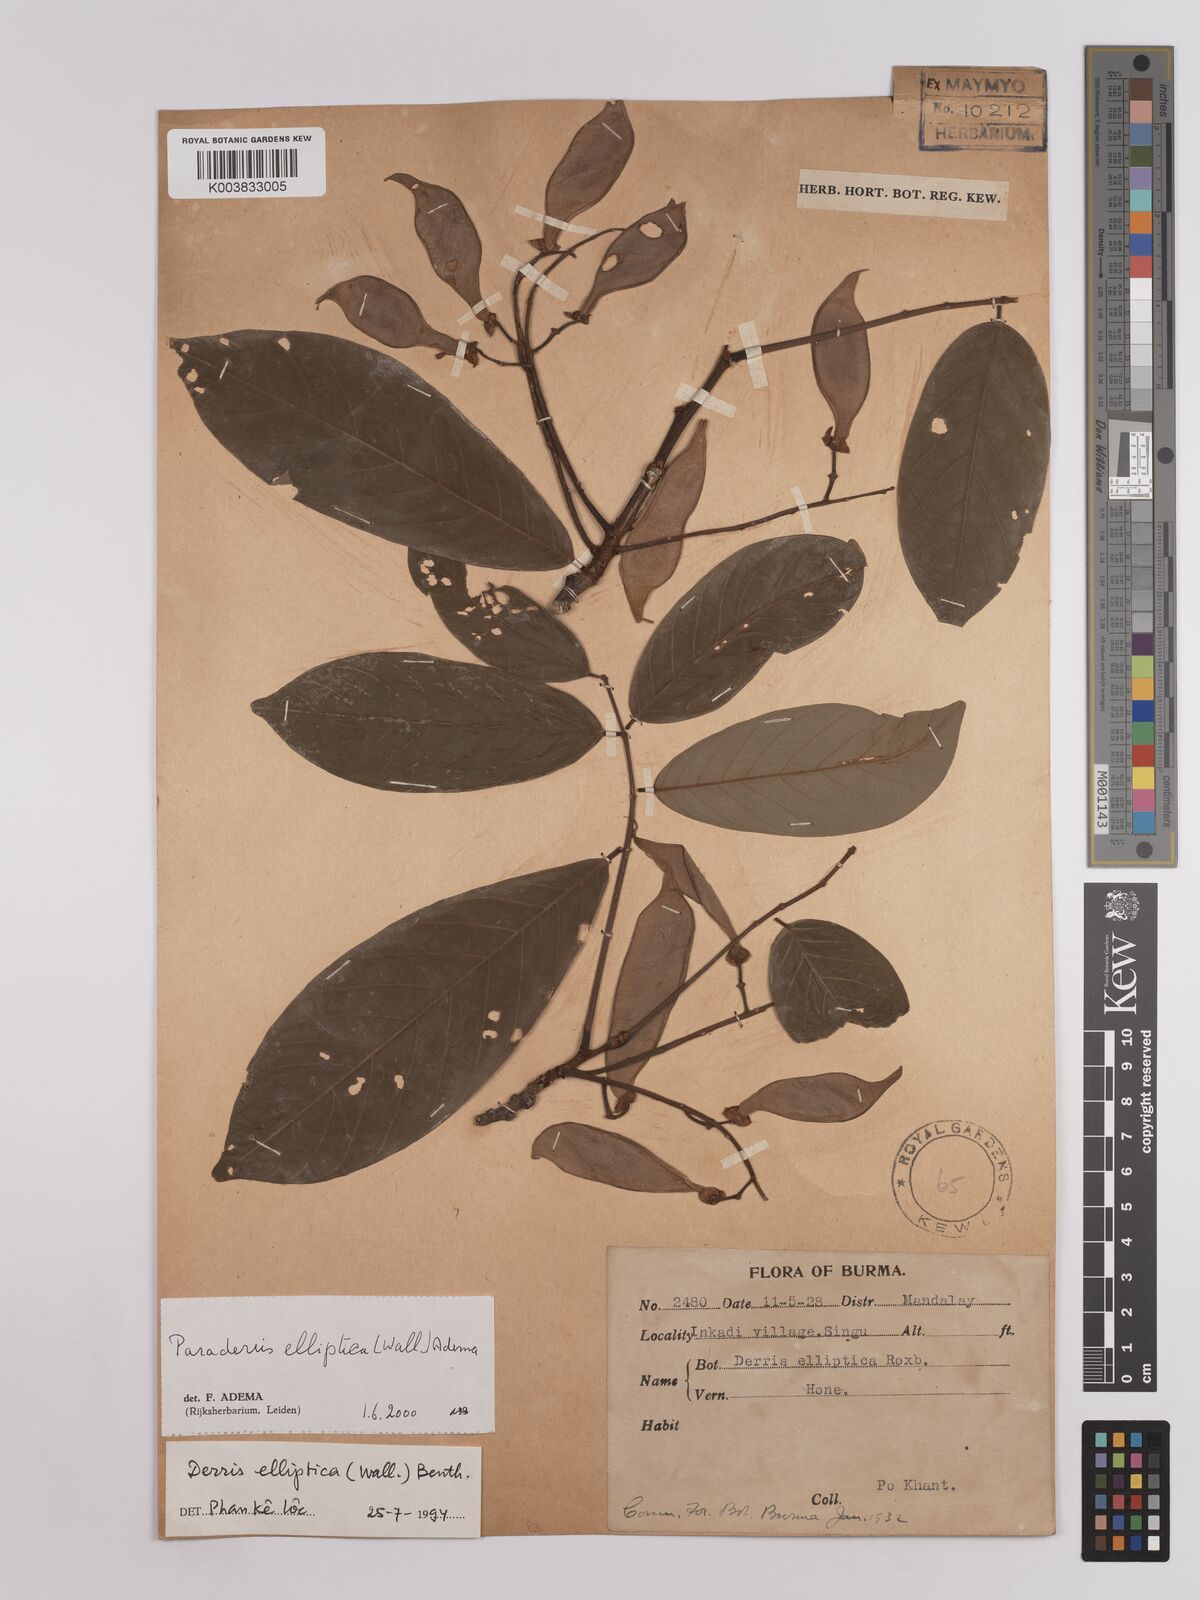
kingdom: Plantae
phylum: Tracheophyta
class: Magnoliopsida
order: Fabales
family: Fabaceae
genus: Derris
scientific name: Derris elliptica
